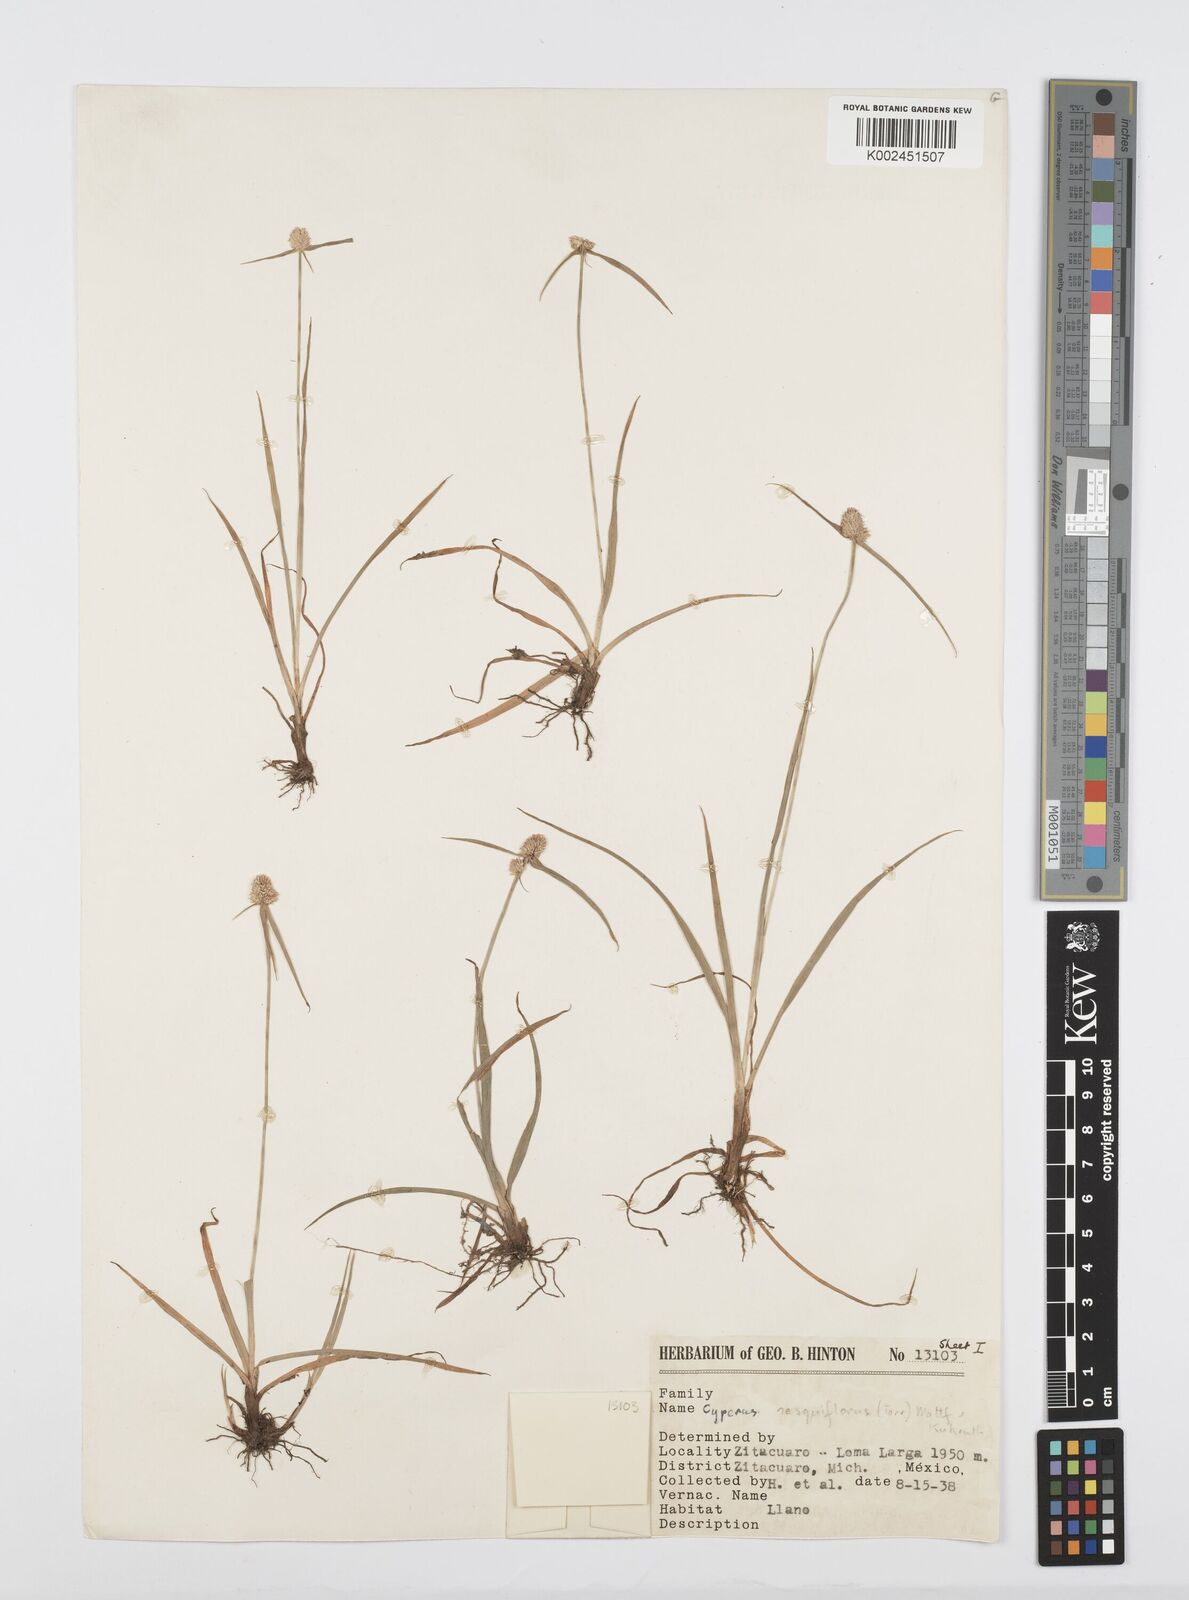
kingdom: Plantae
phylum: Tracheophyta
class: Liliopsida
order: Poales
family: Cyperaceae
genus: Cyperus
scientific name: Cyperus
